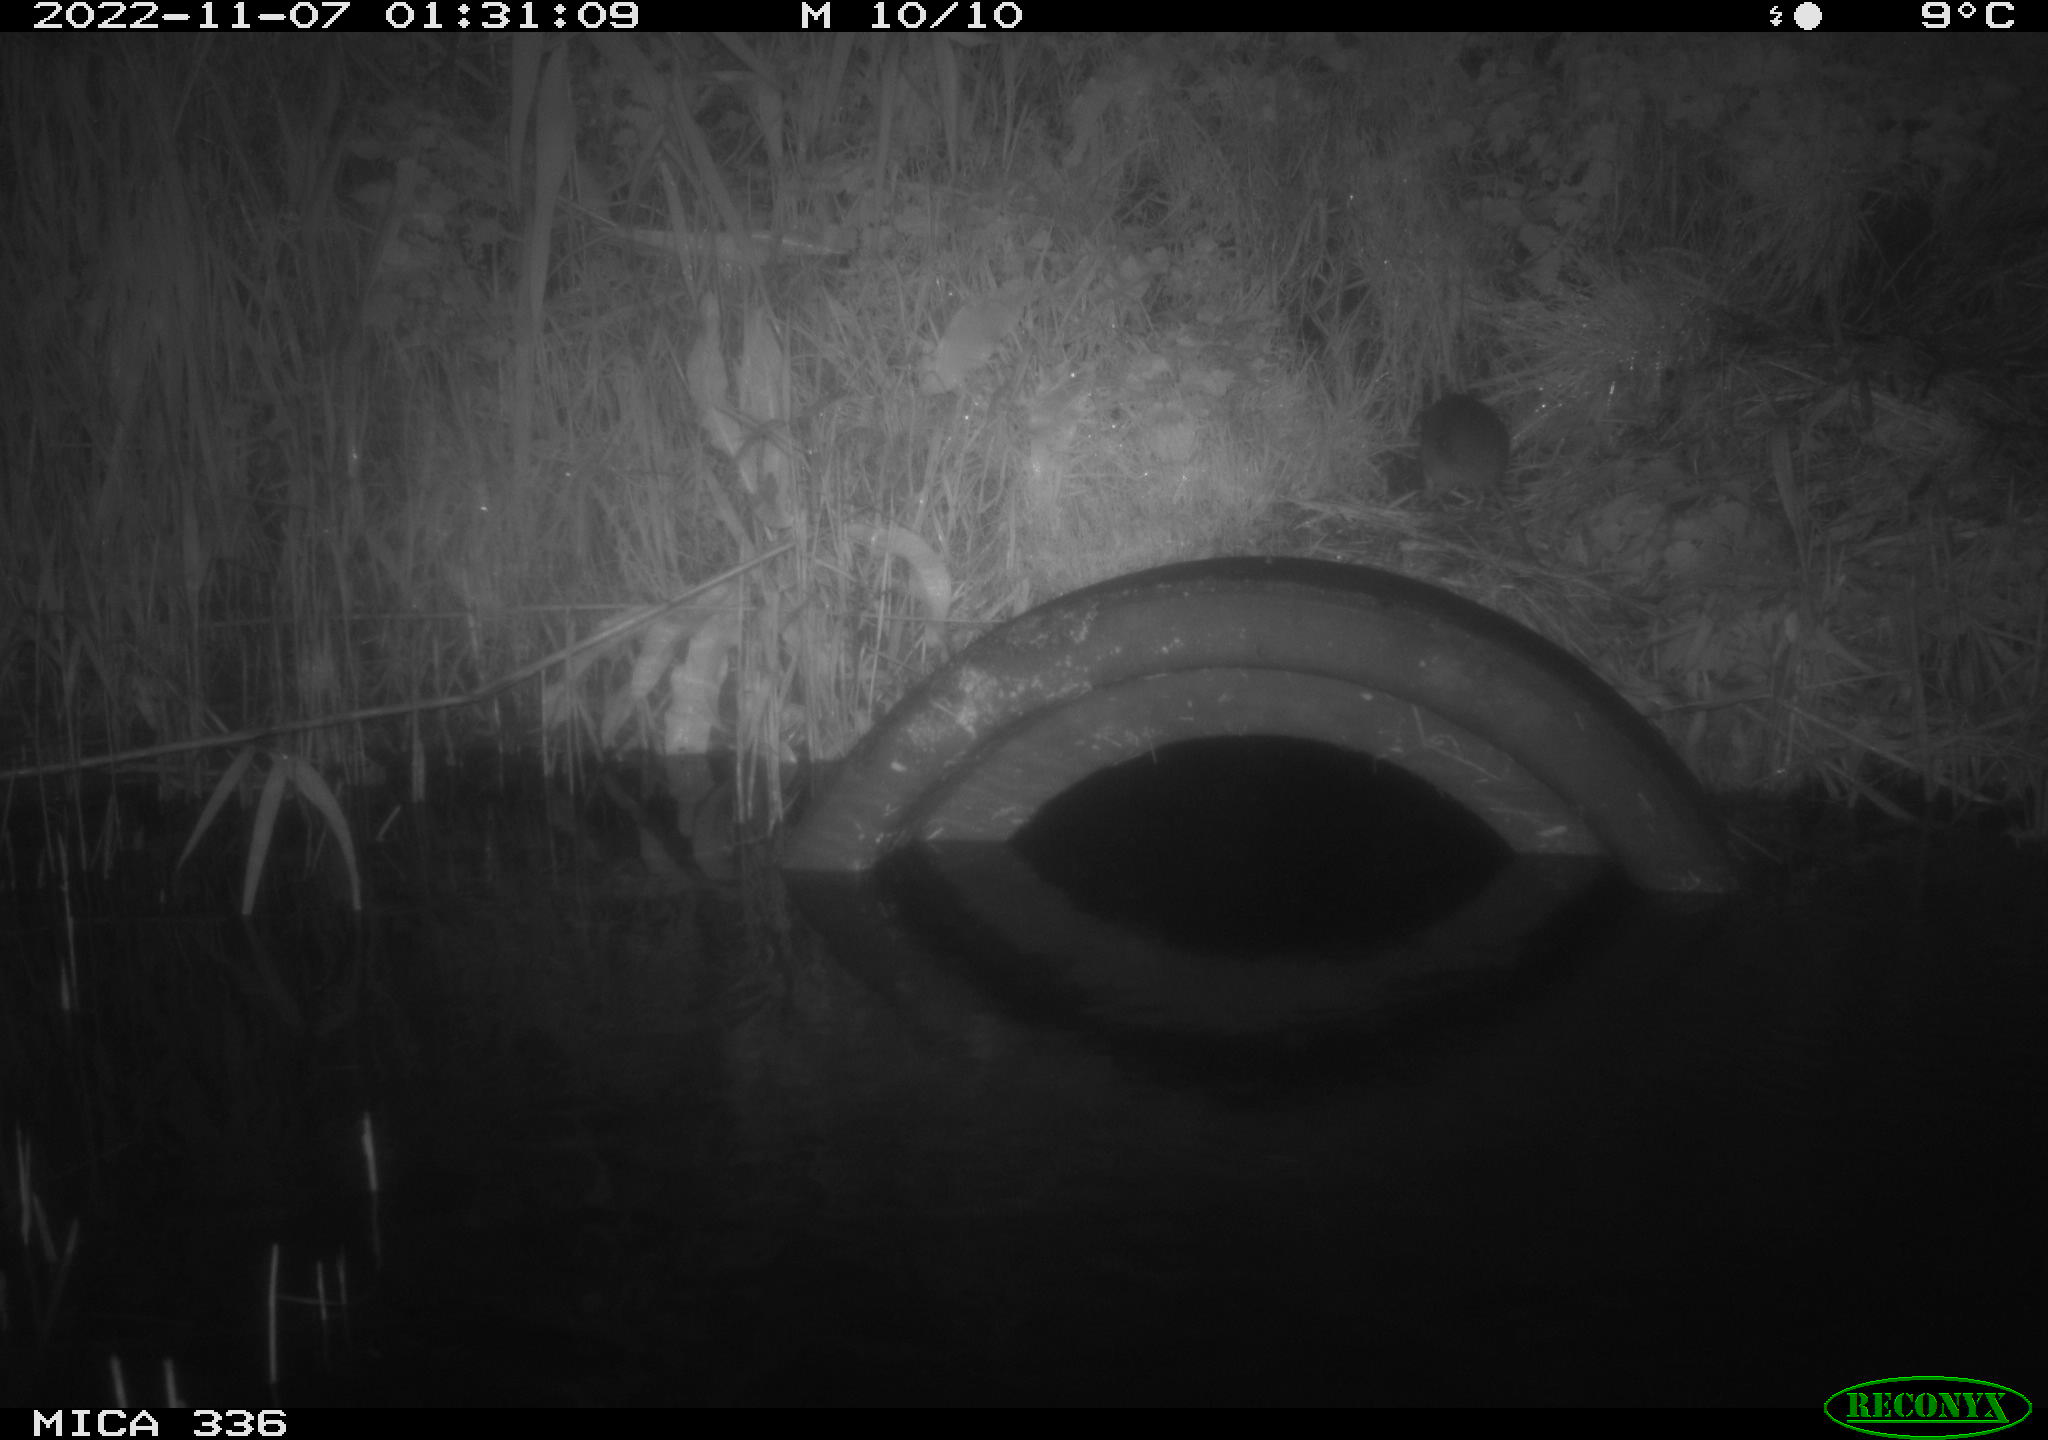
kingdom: Animalia
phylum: Chordata
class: Mammalia
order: Rodentia
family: Muridae
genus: Rattus
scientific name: Rattus norvegicus
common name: Brown rat
